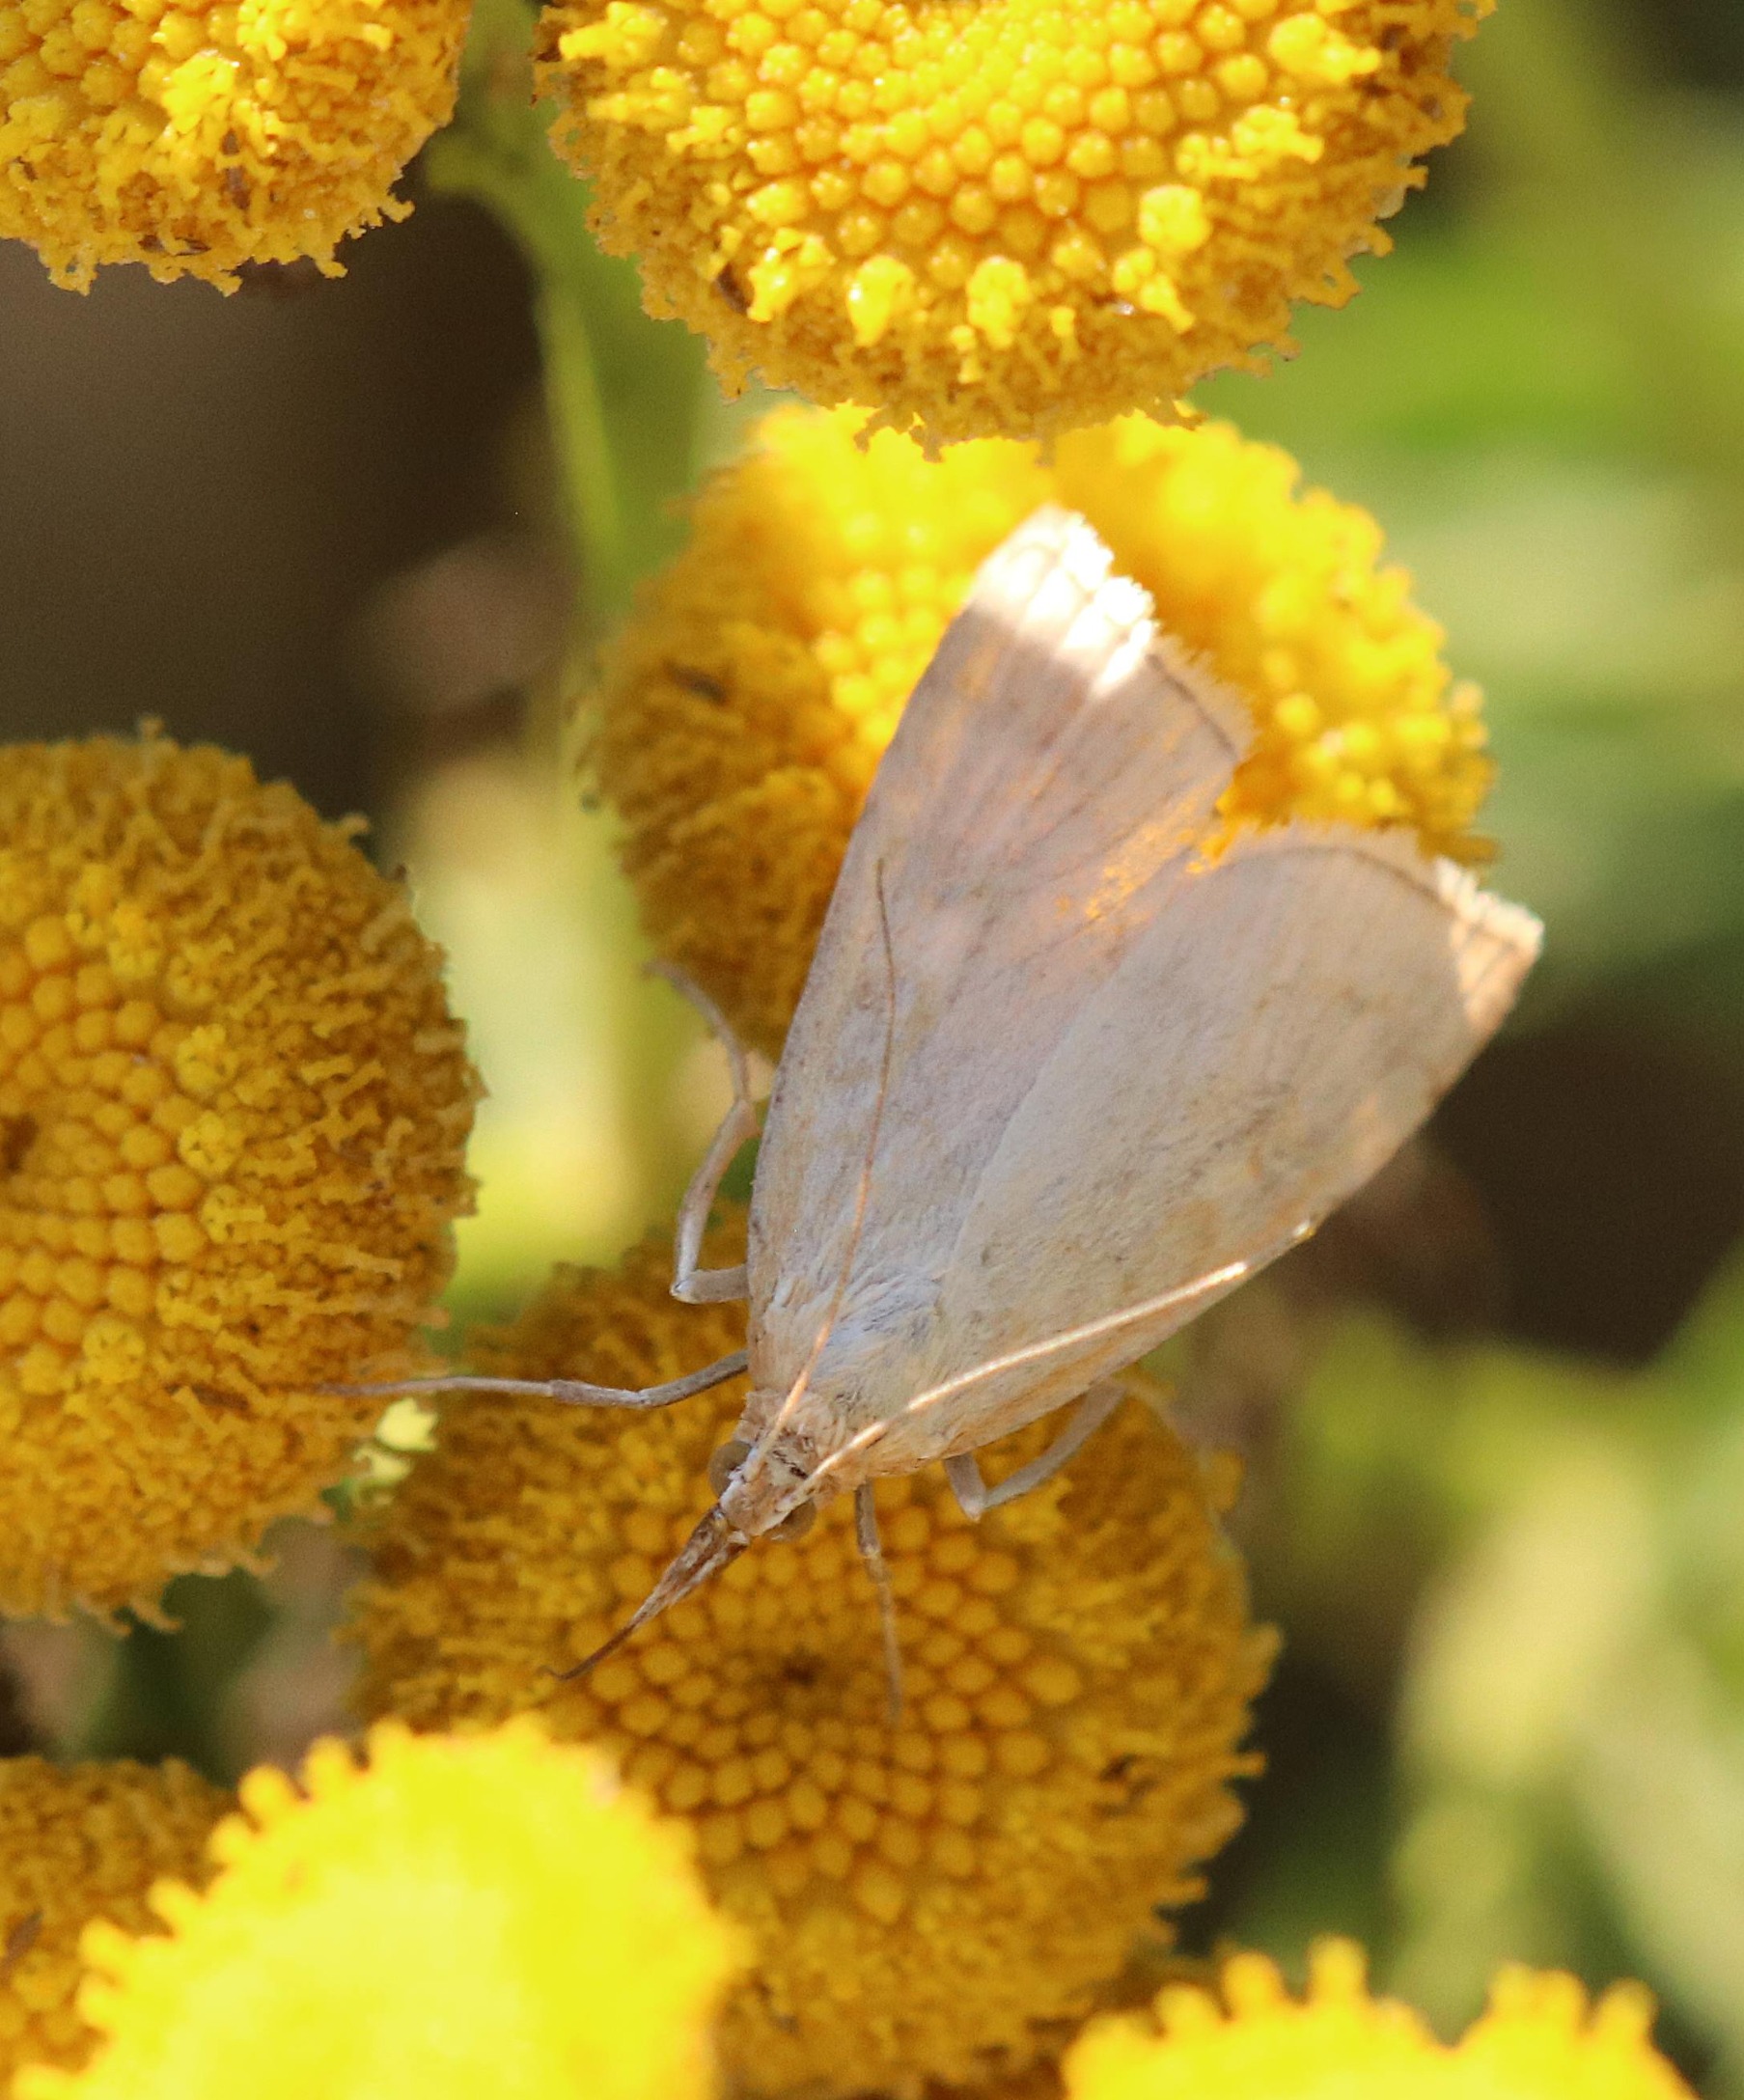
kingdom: Animalia
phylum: Arthropoda
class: Insecta
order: Lepidoptera
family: Crambidae
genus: Udea
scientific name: Udea lutealis
